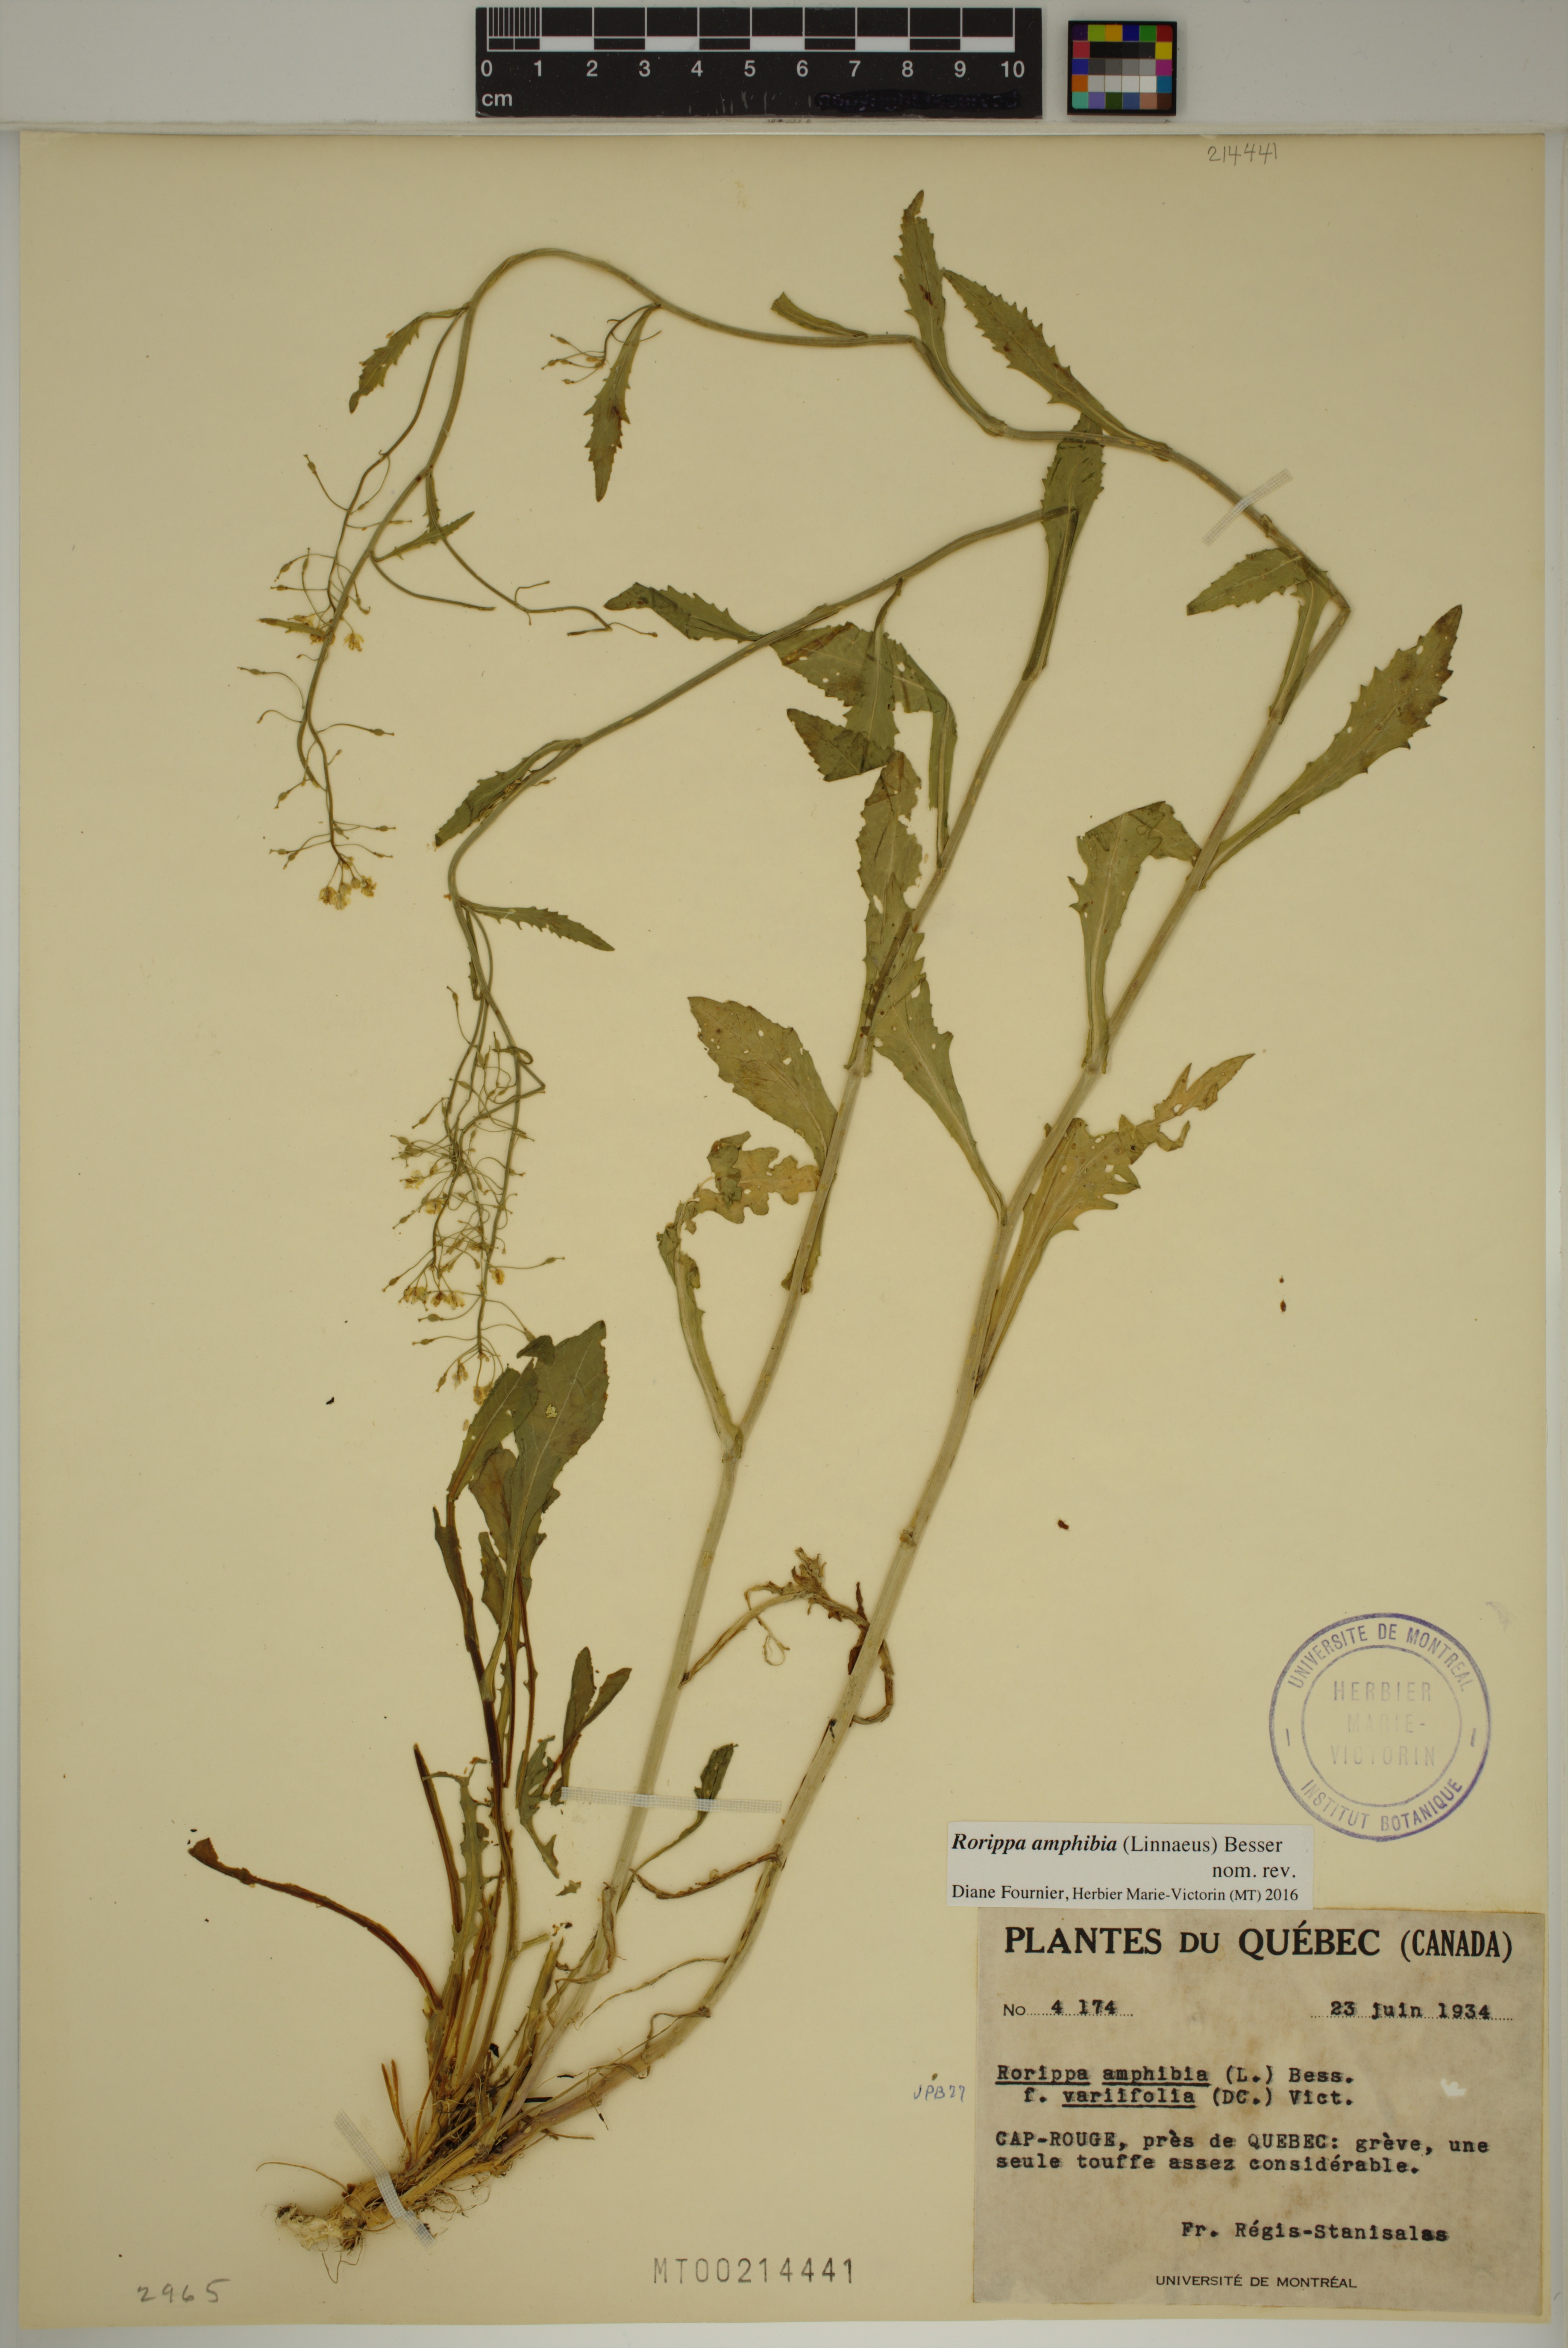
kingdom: Plantae
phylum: Tracheophyta
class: Magnoliopsida
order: Brassicales
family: Brassicaceae
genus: Rorippa
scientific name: Rorippa amphibia
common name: Great yellow-cress
